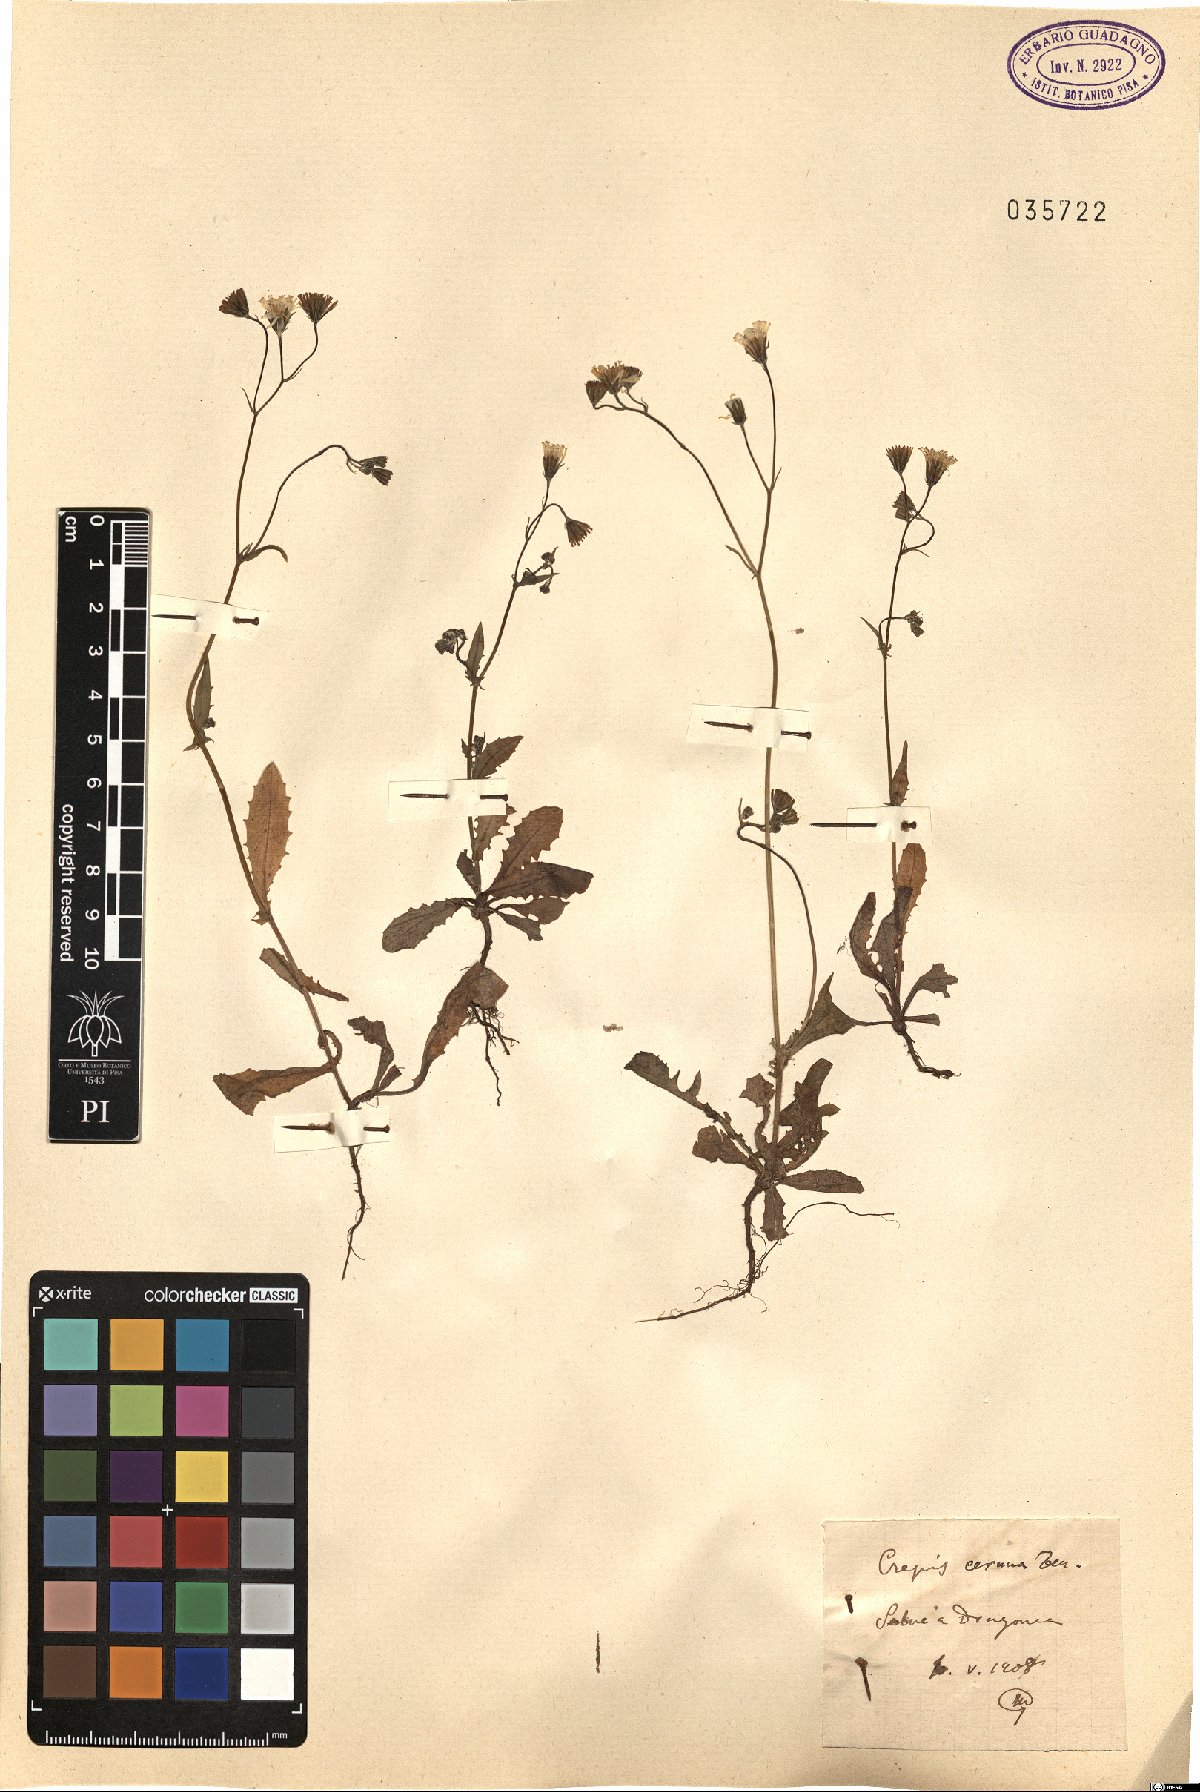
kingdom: Plantae
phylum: Tracheophyta
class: Magnoliopsida
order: Asterales
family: Asteraceae
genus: Crepis
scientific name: Crepis neglecta
